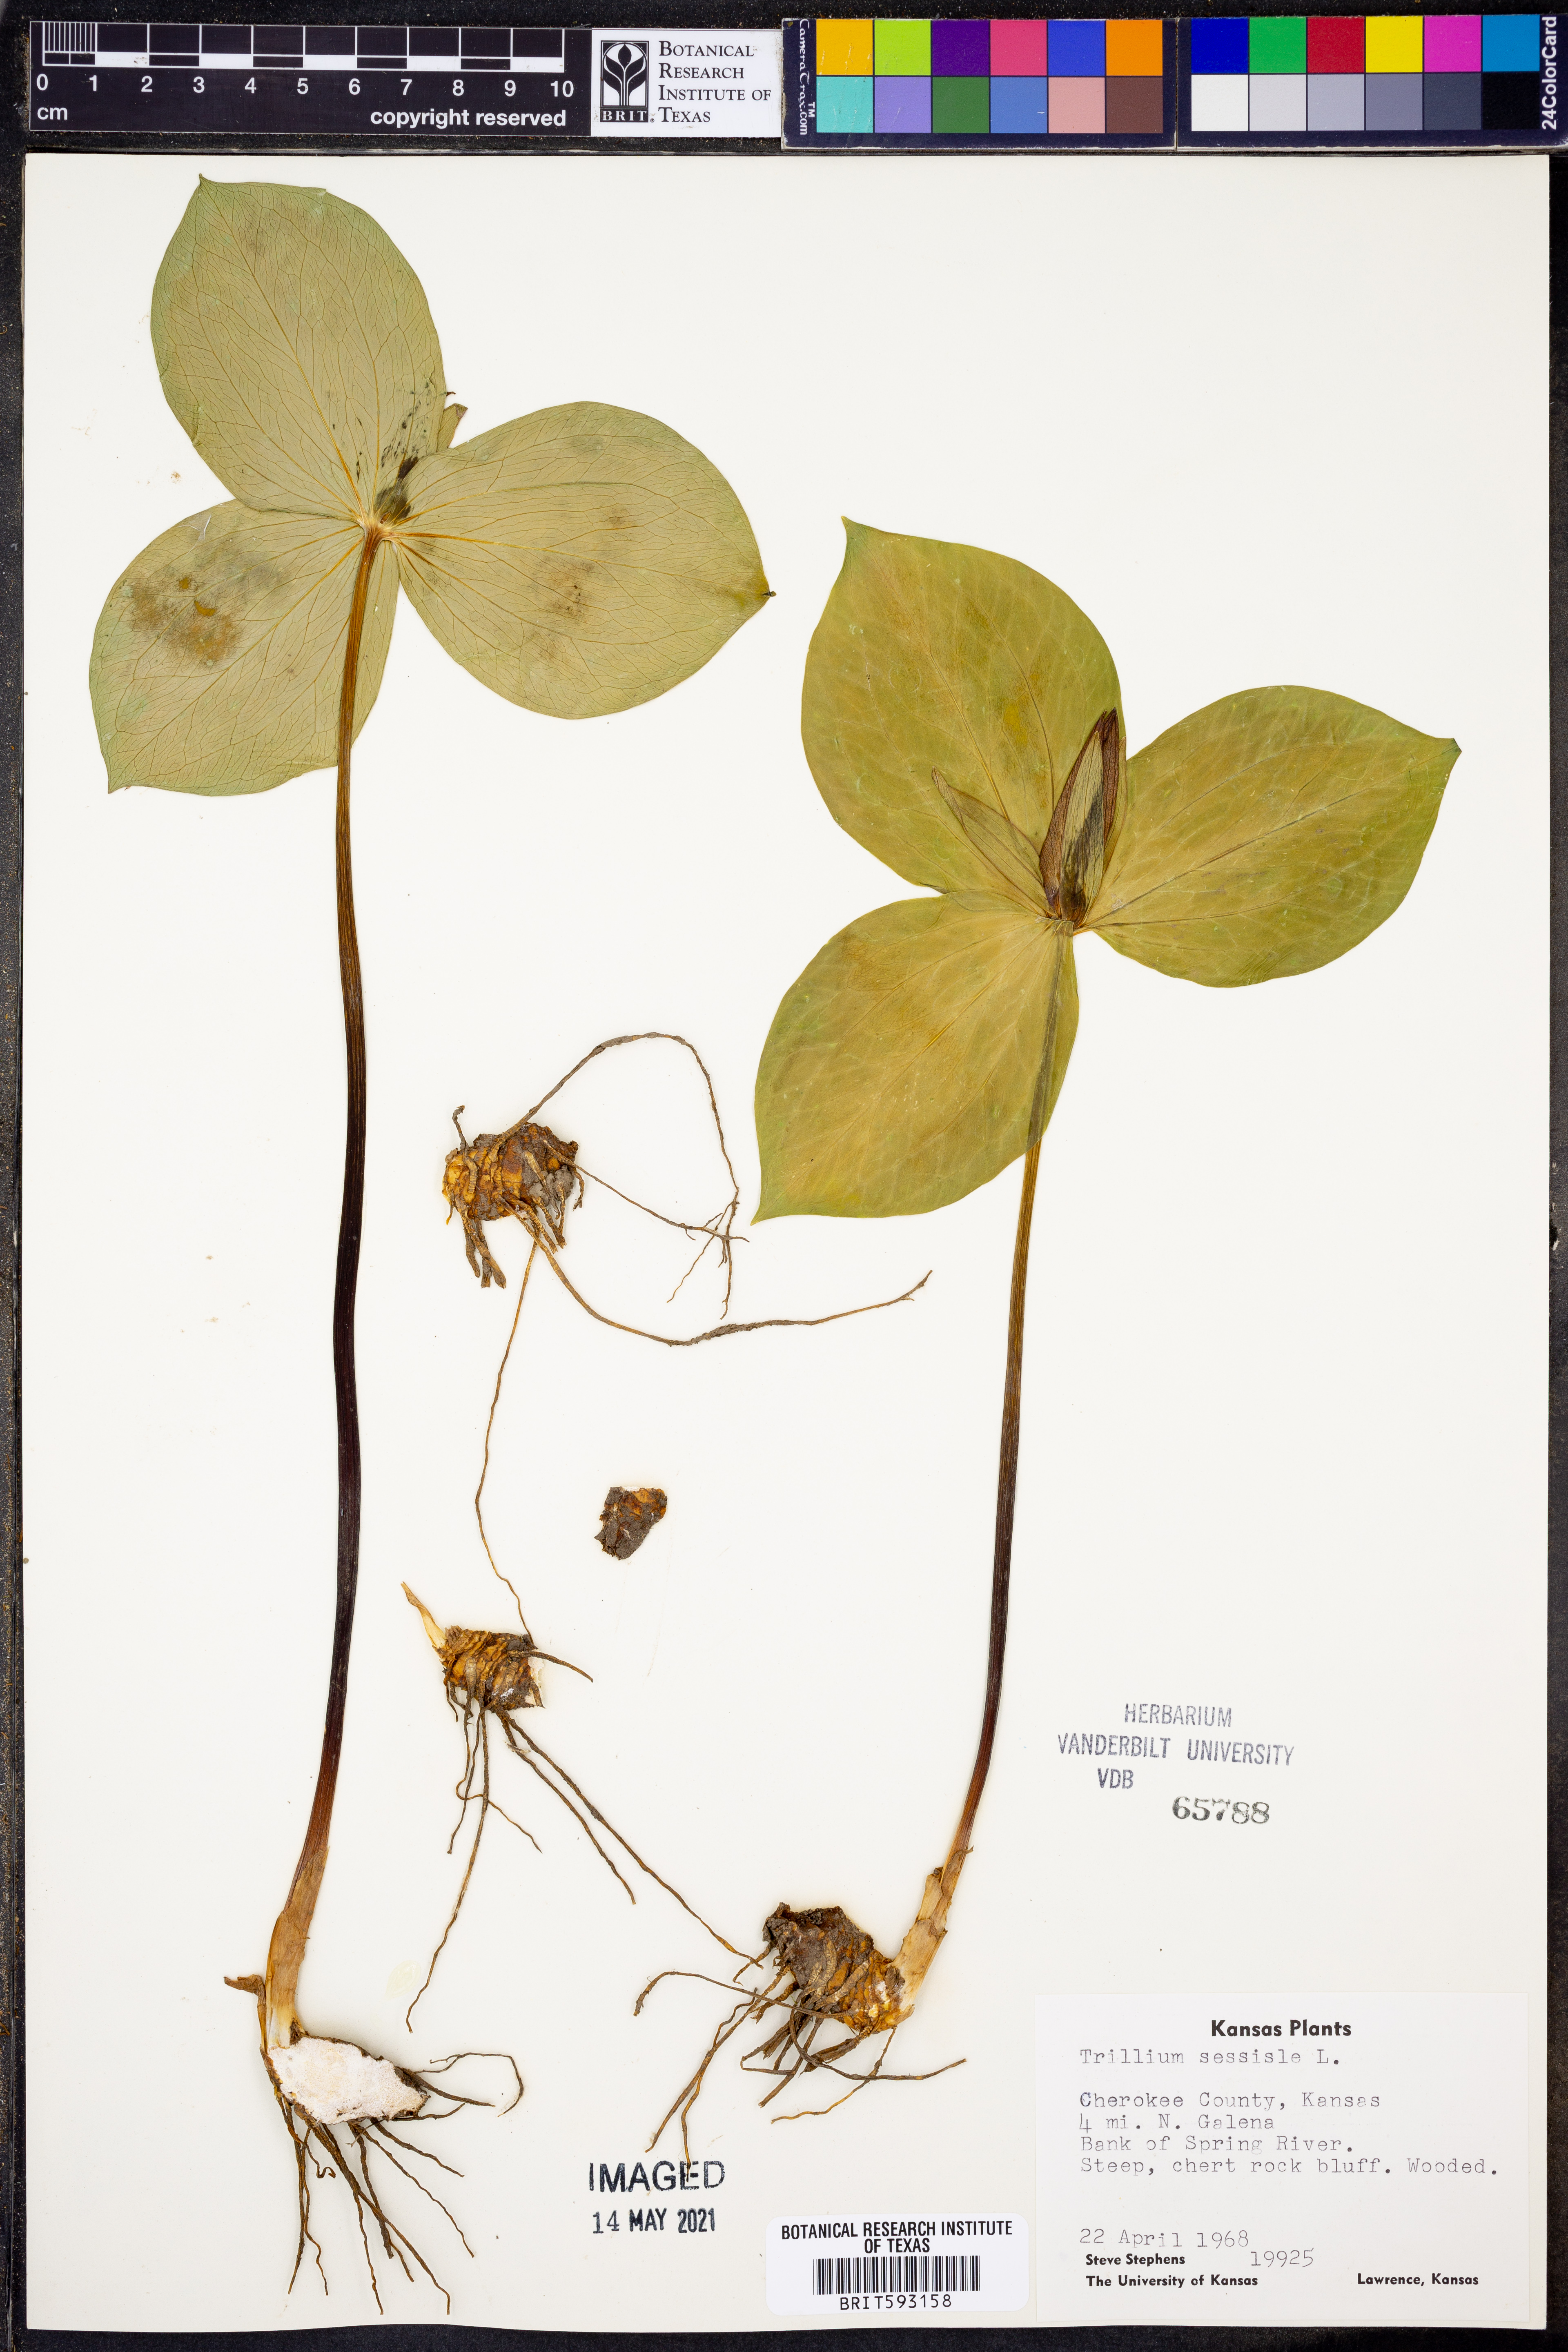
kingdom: Plantae
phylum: Tracheophyta
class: Liliopsida
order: Liliales
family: Melanthiaceae
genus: Trillium
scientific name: Trillium sessile
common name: Sessile trillium
